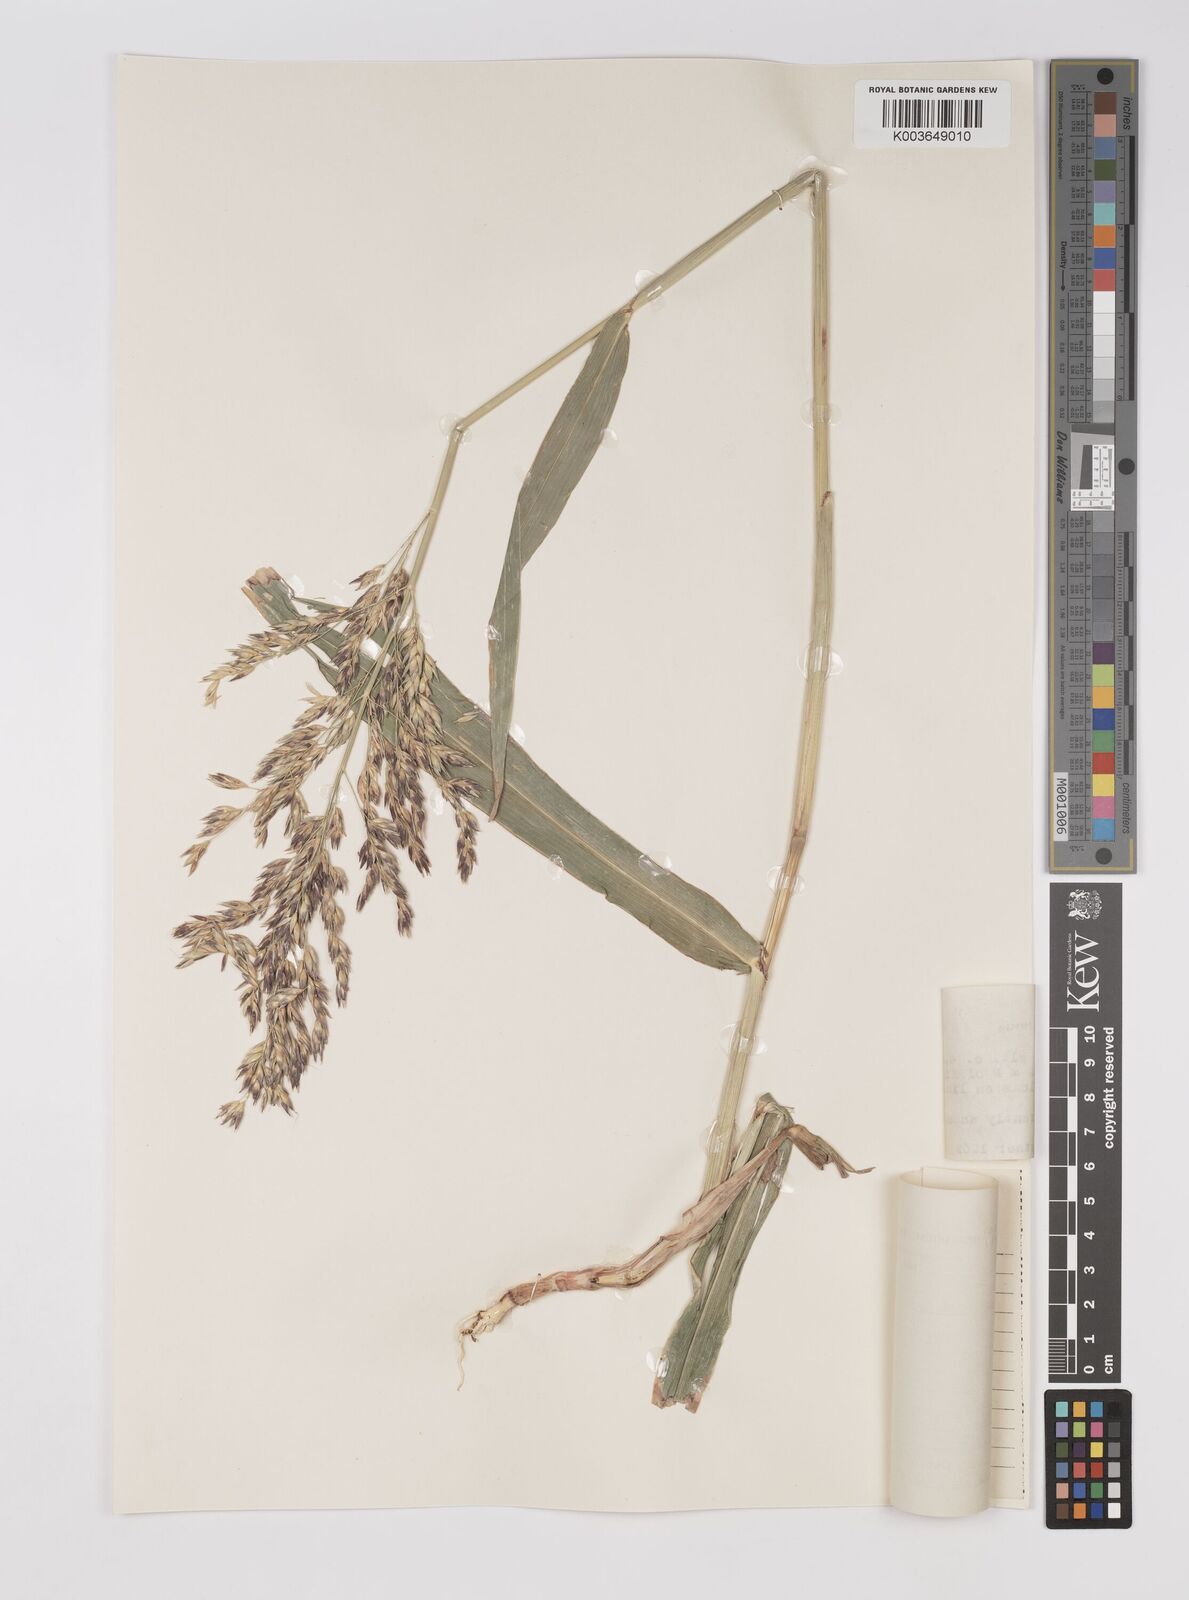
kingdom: Plantae
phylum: Tracheophyta
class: Liliopsida
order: Poales
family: Poaceae
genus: Sorghum
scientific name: Sorghum almum
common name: Columbus grass
